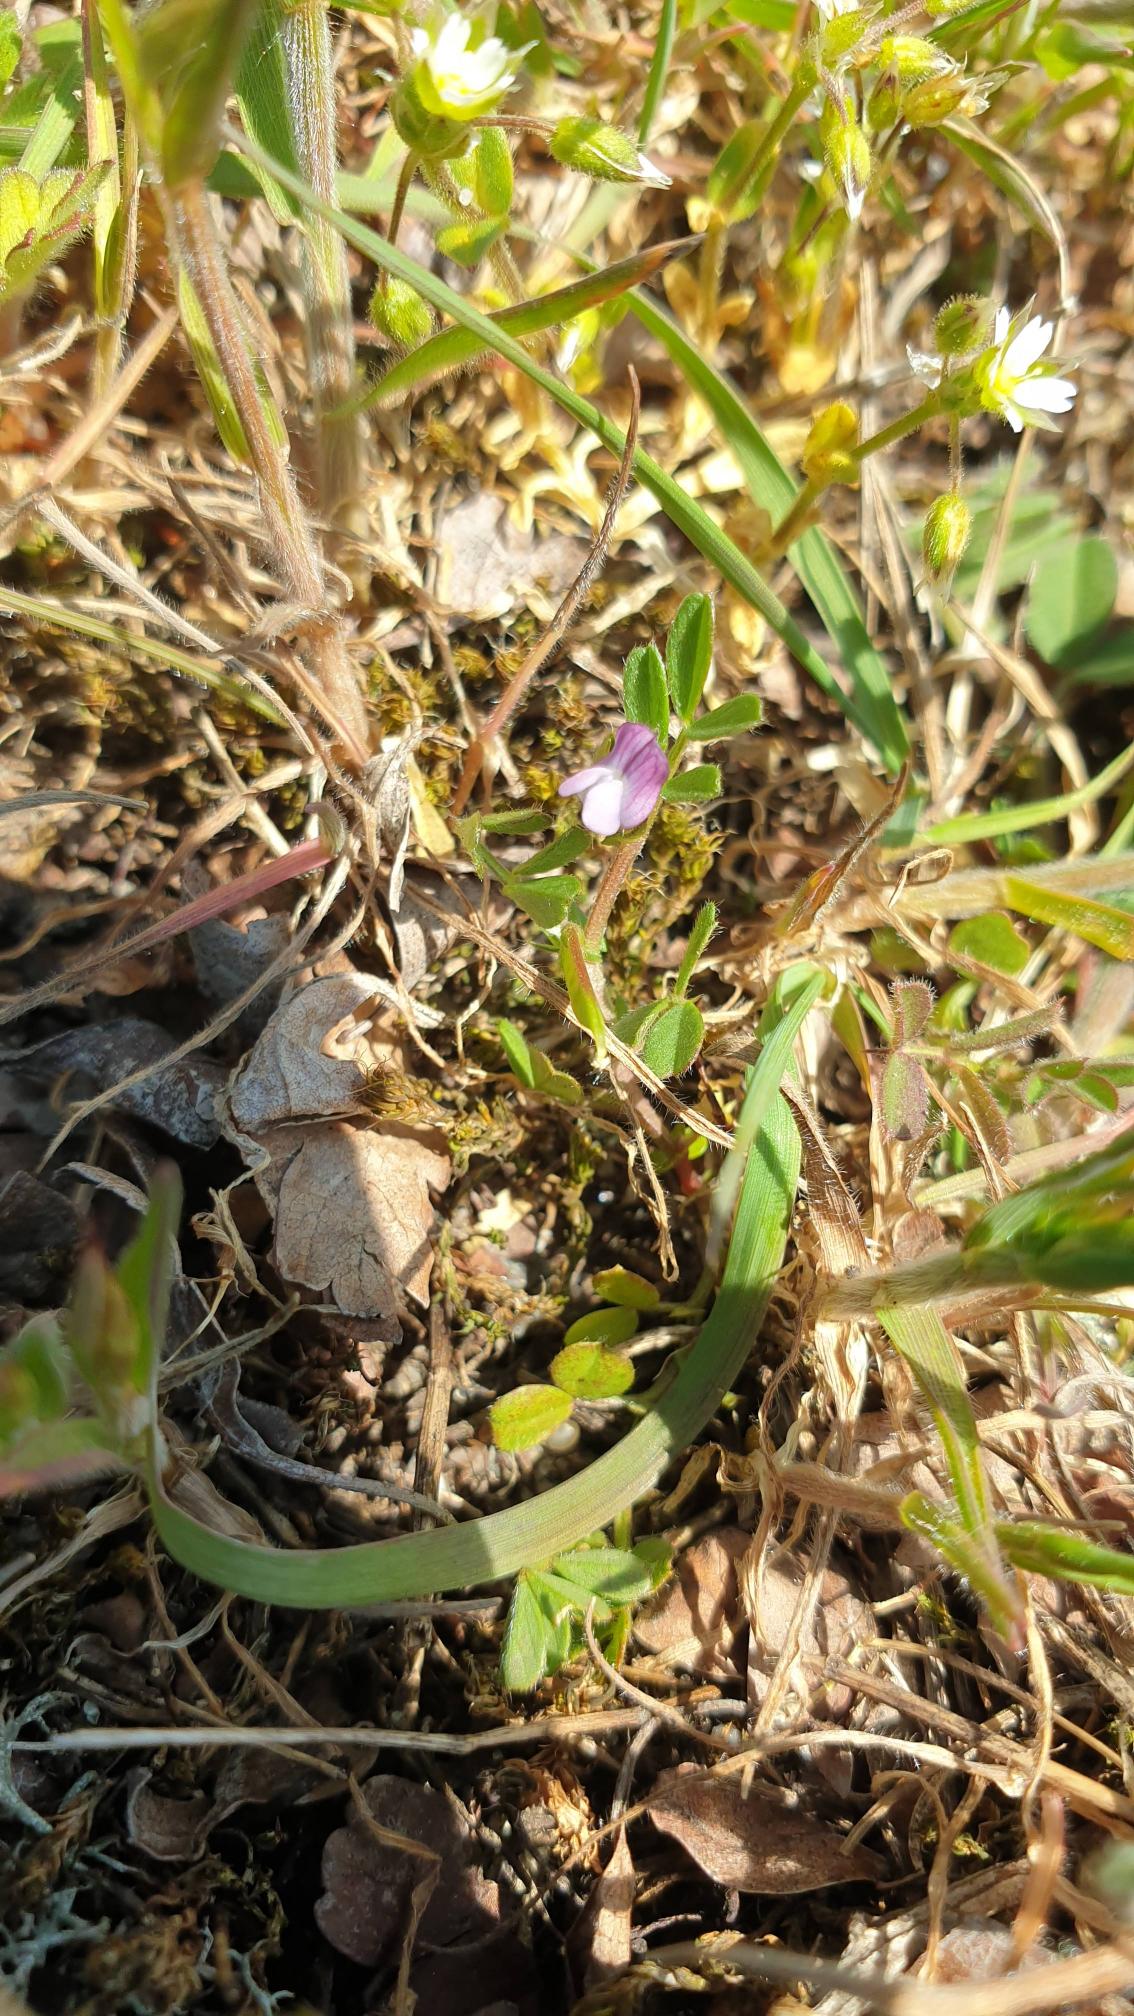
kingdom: Plantae
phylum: Tracheophyta
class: Magnoliopsida
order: Fabales
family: Fabaceae
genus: Vicia
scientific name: Vicia lathyroides
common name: Vår-vikke
